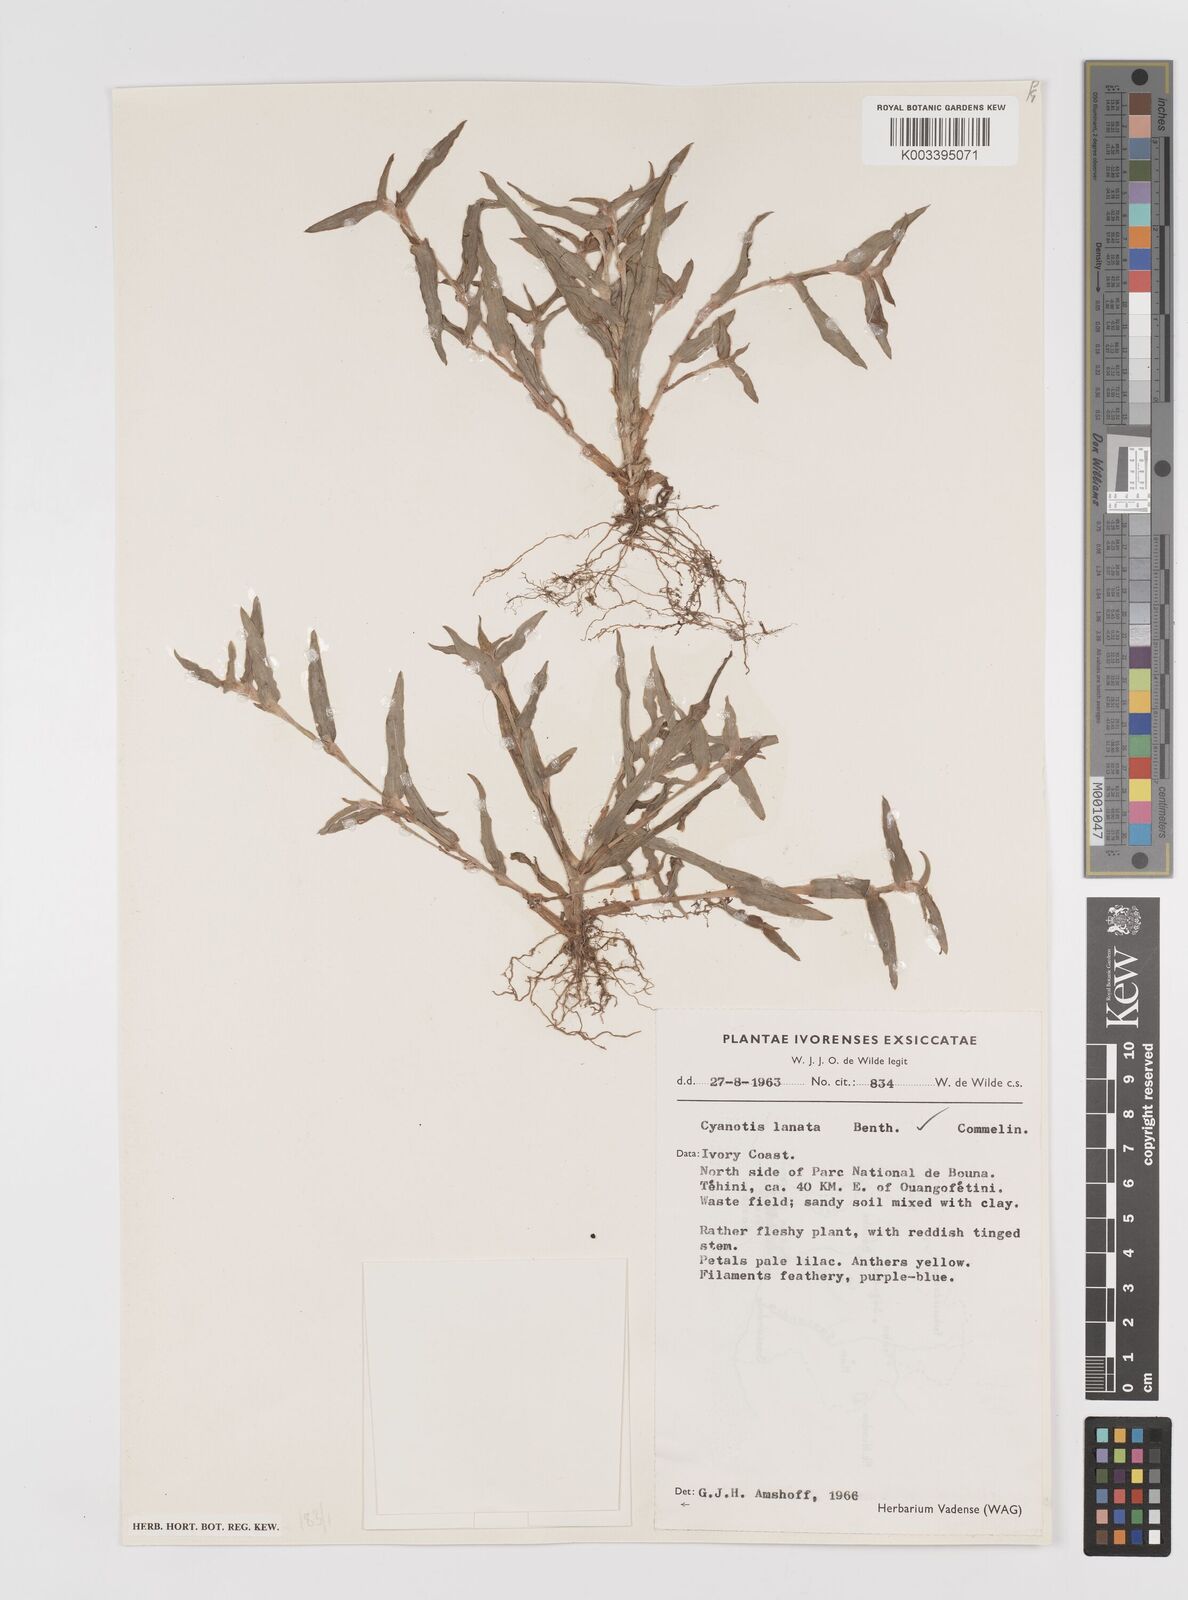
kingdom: Plantae
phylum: Tracheophyta
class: Liliopsida
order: Commelinales
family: Commelinaceae
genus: Cyanotis
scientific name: Cyanotis lanata
